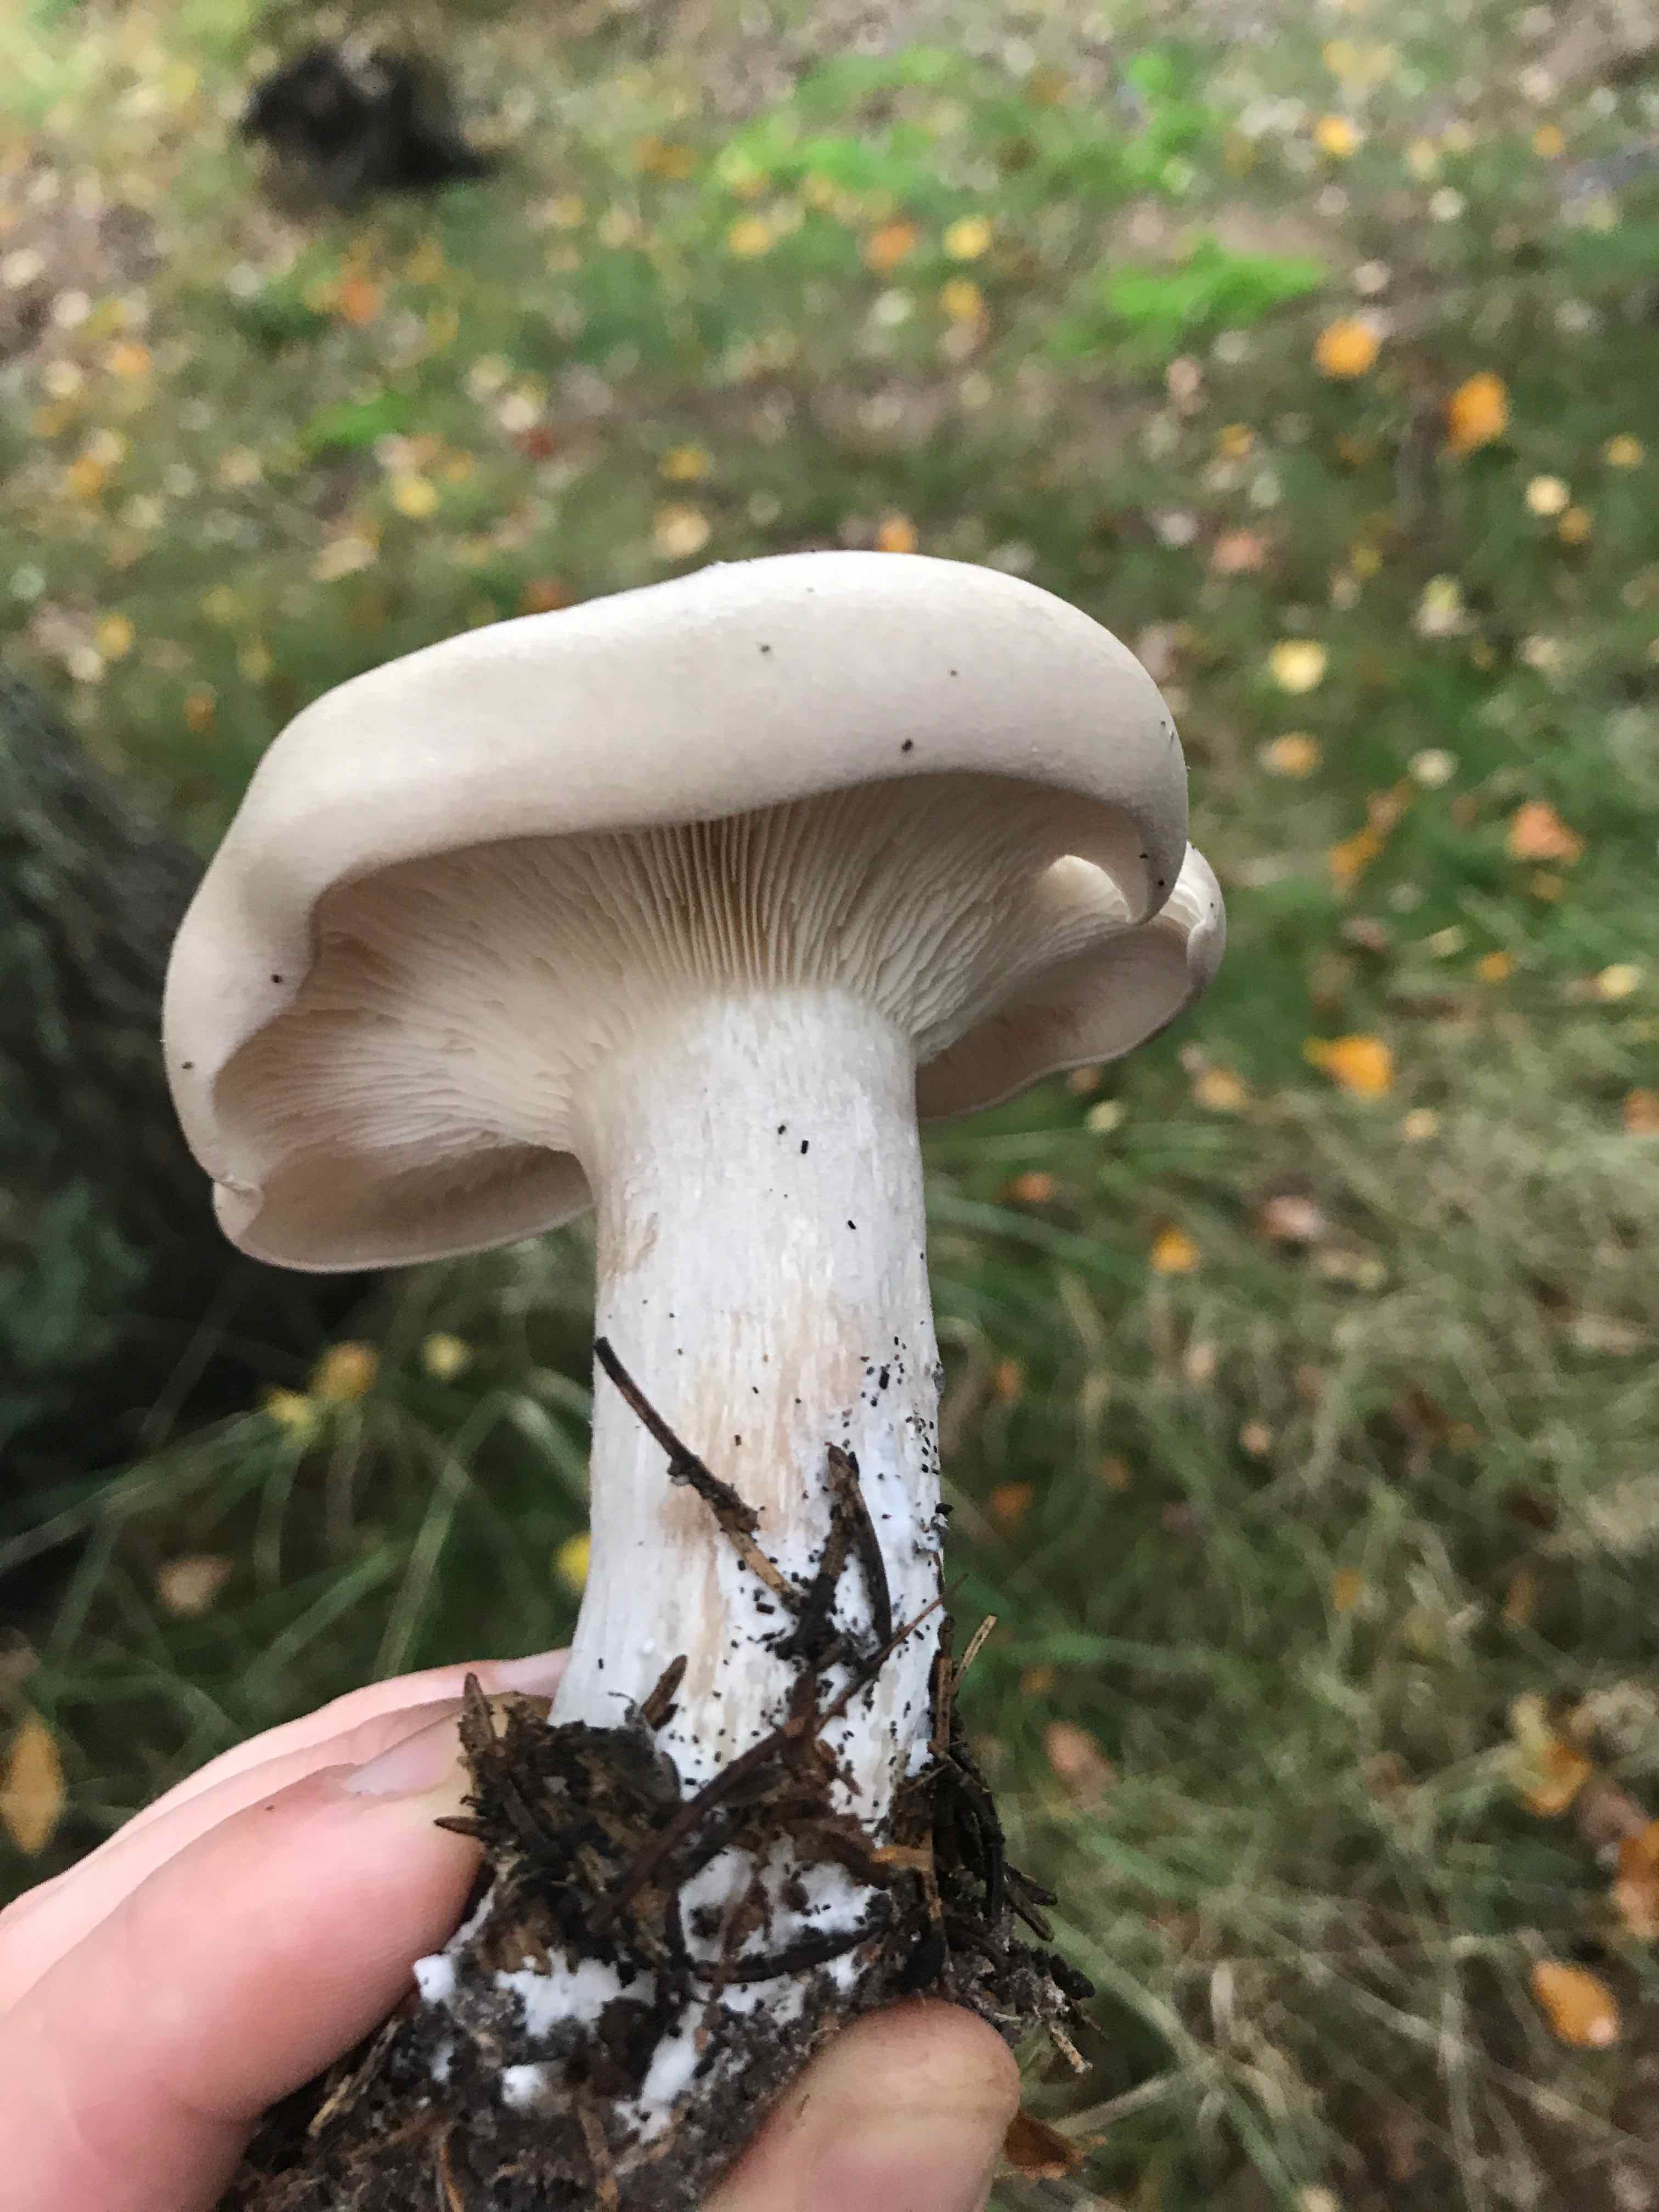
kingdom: Fungi
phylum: Basidiomycota
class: Agaricomycetes
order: Agaricales
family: Tricholomataceae
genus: Clitocybe
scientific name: Clitocybe nebularis
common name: tåge-tragthat
